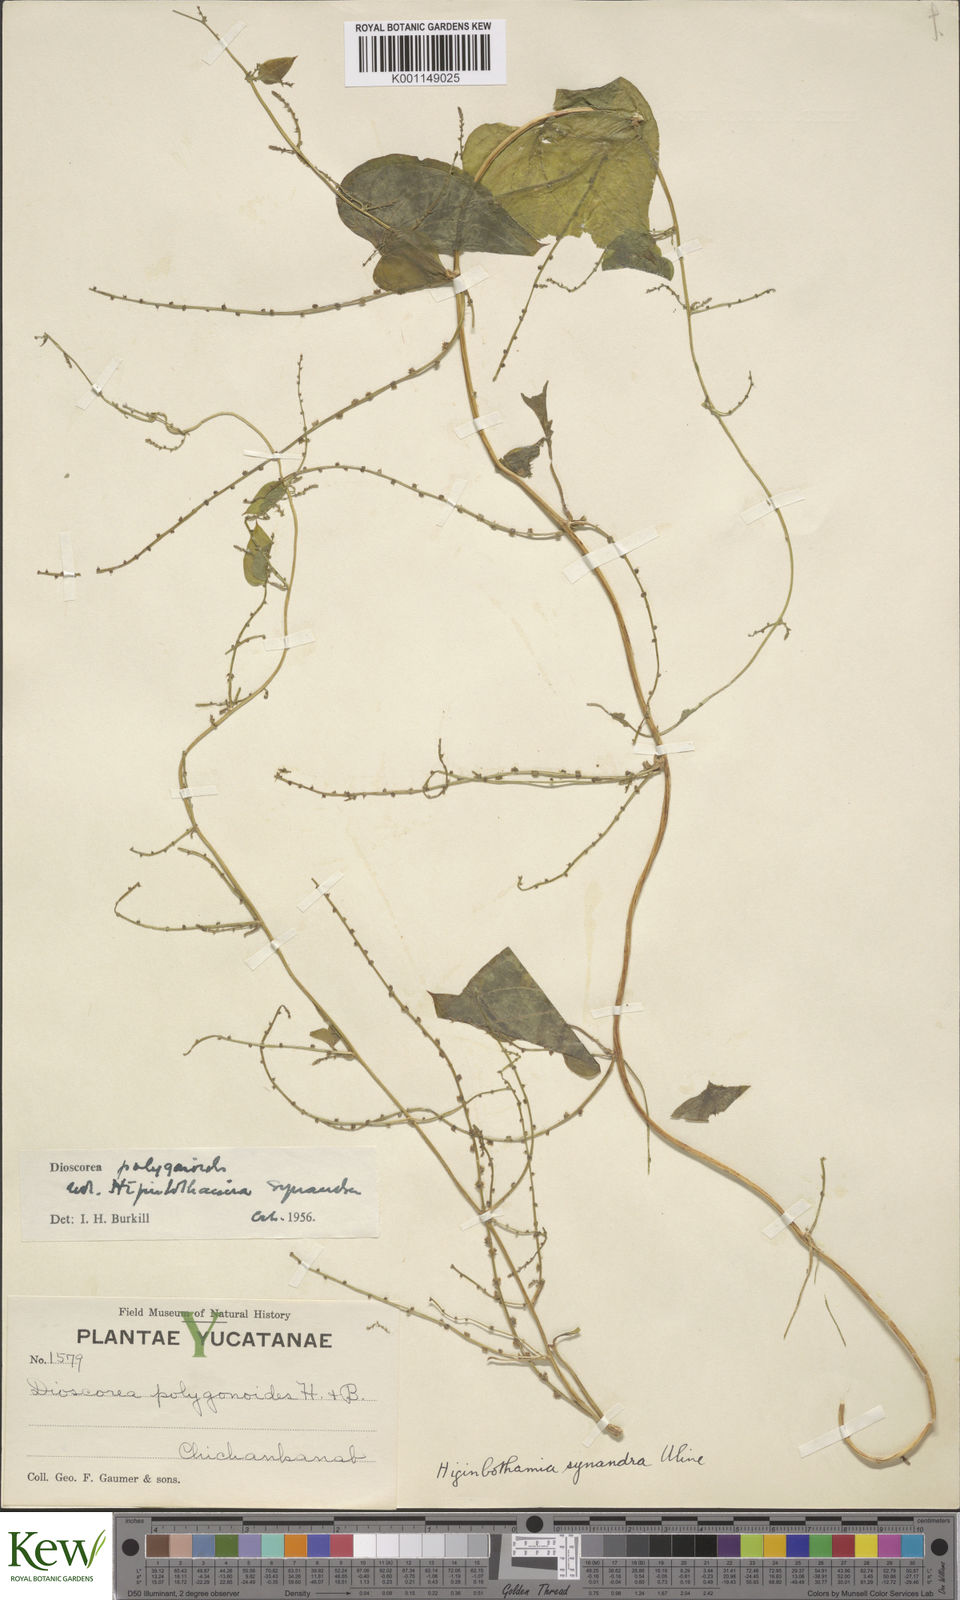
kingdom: Plantae
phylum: Tracheophyta
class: Liliopsida
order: Dioscoreales
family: Dioscoreaceae
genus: Dioscorea
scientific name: Dioscorea polygonoides
